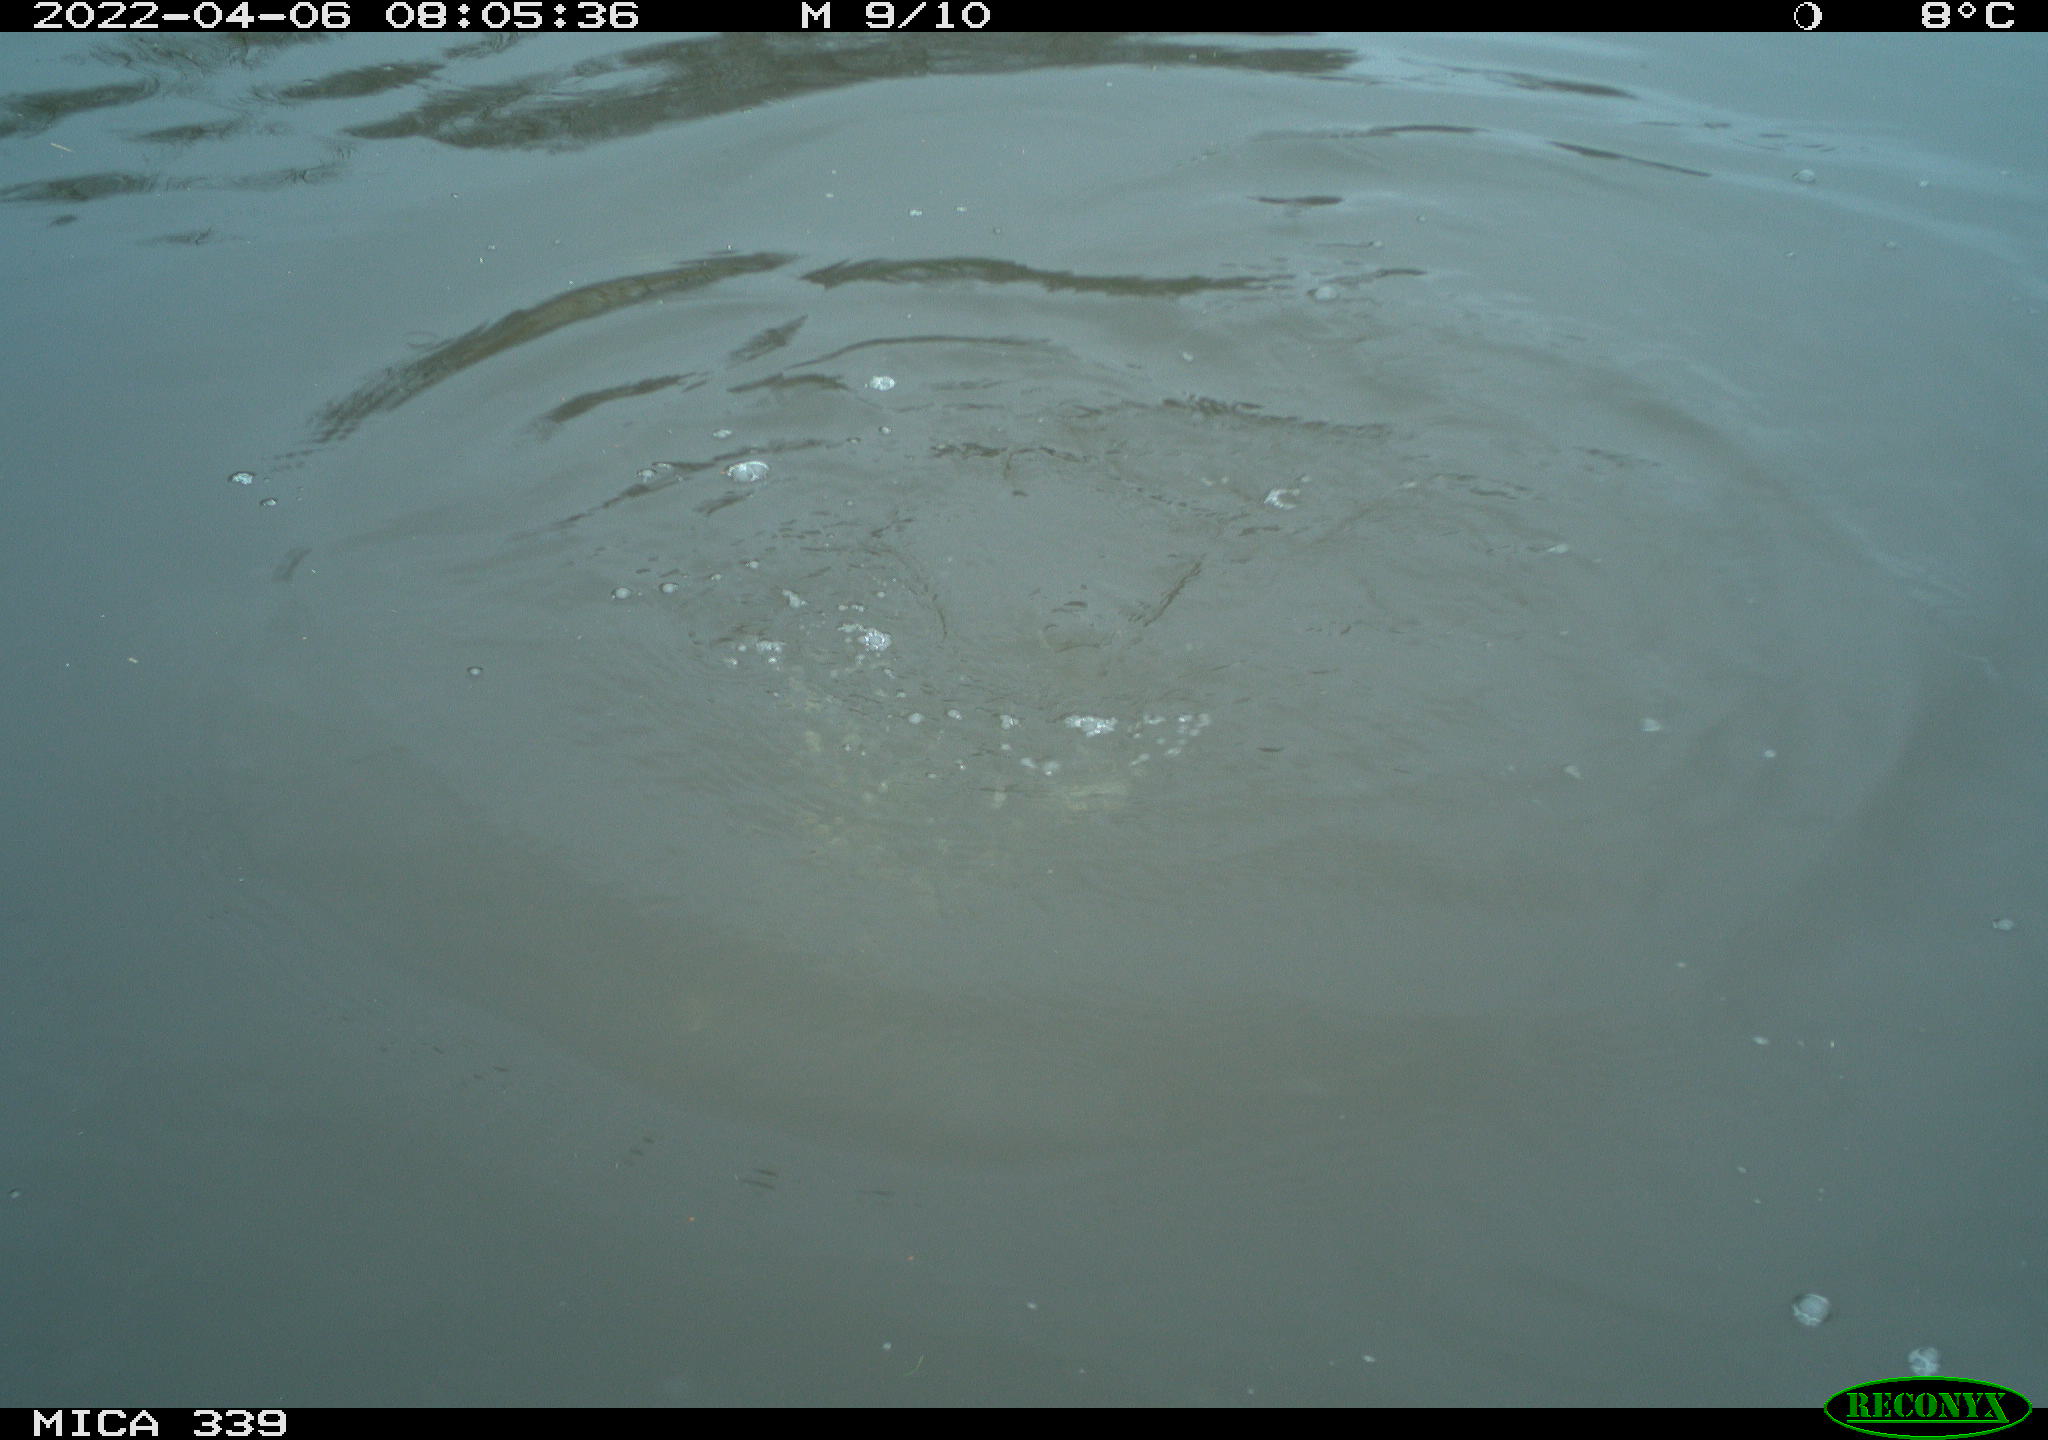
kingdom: Animalia
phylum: Chordata
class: Aves
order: Suliformes
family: Phalacrocoracidae
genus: Phalacrocorax
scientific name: Phalacrocorax carbo
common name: Great cormorant
